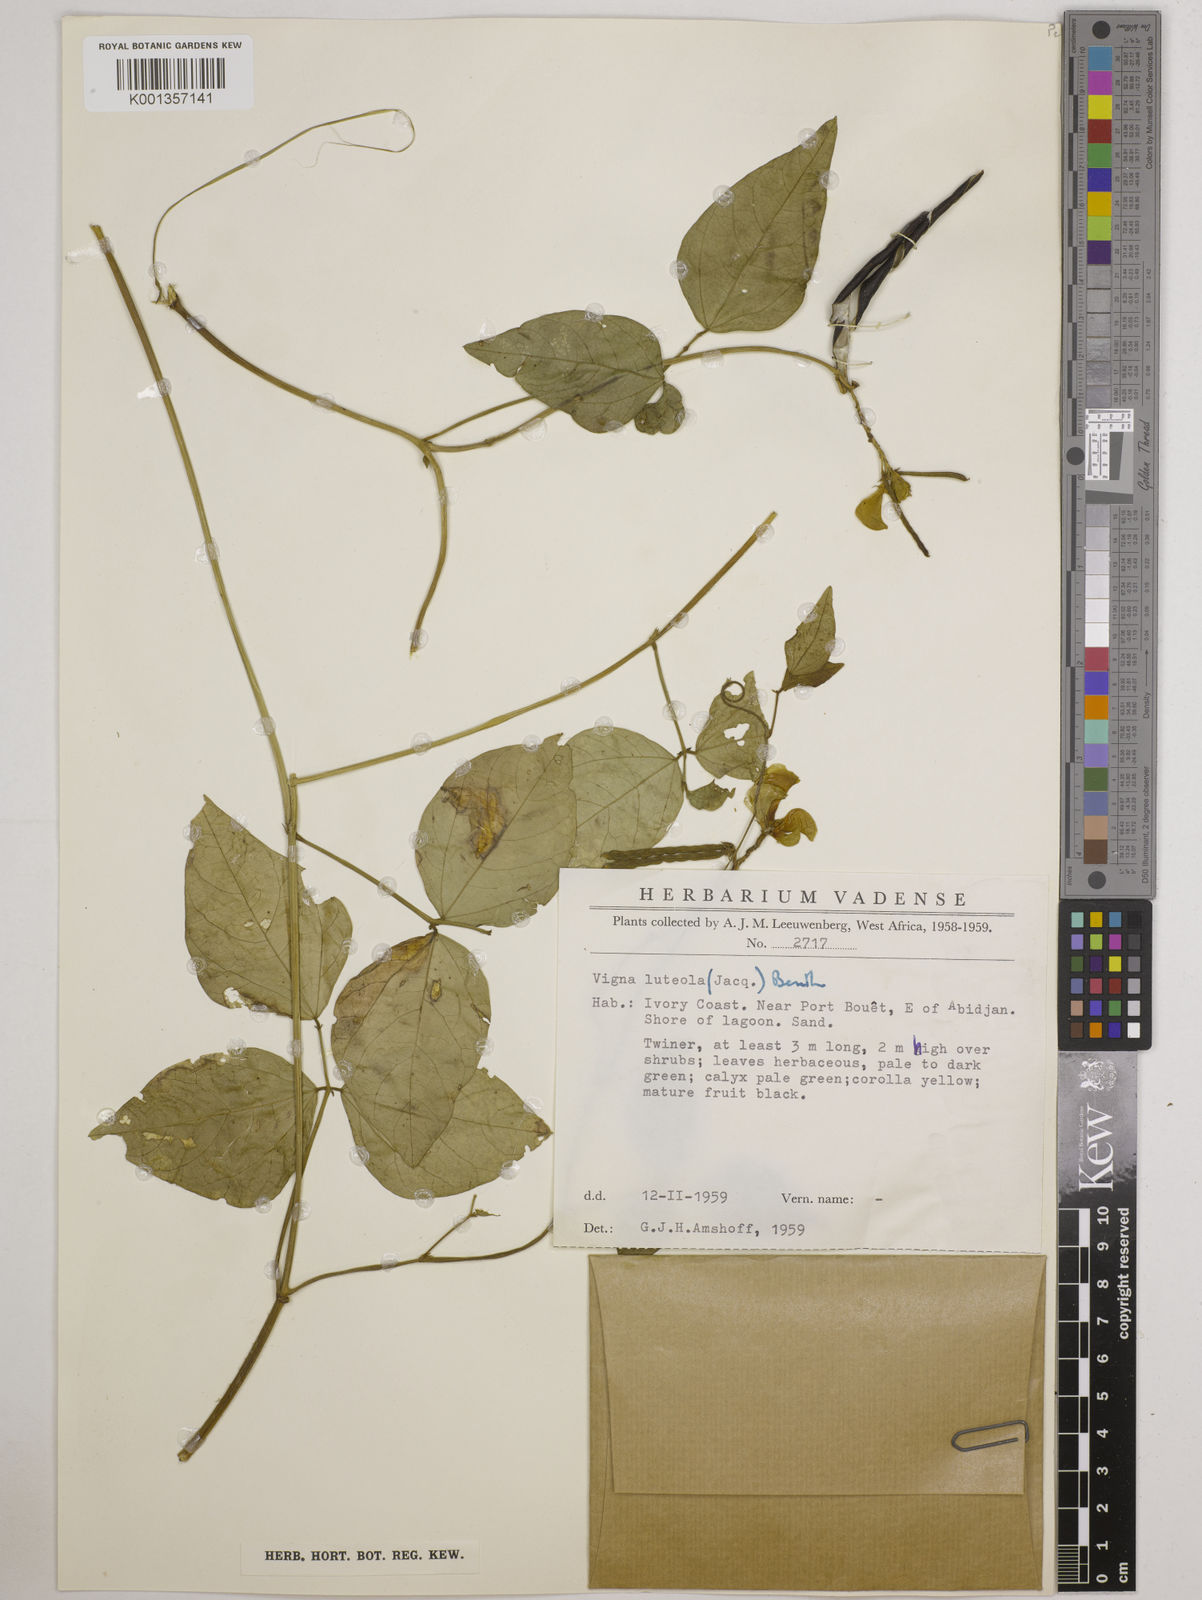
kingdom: Plantae
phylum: Tracheophyta
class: Magnoliopsida
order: Fabales
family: Fabaceae
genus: Vigna
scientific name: Vigna luteola
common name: Hairypod cowpea
